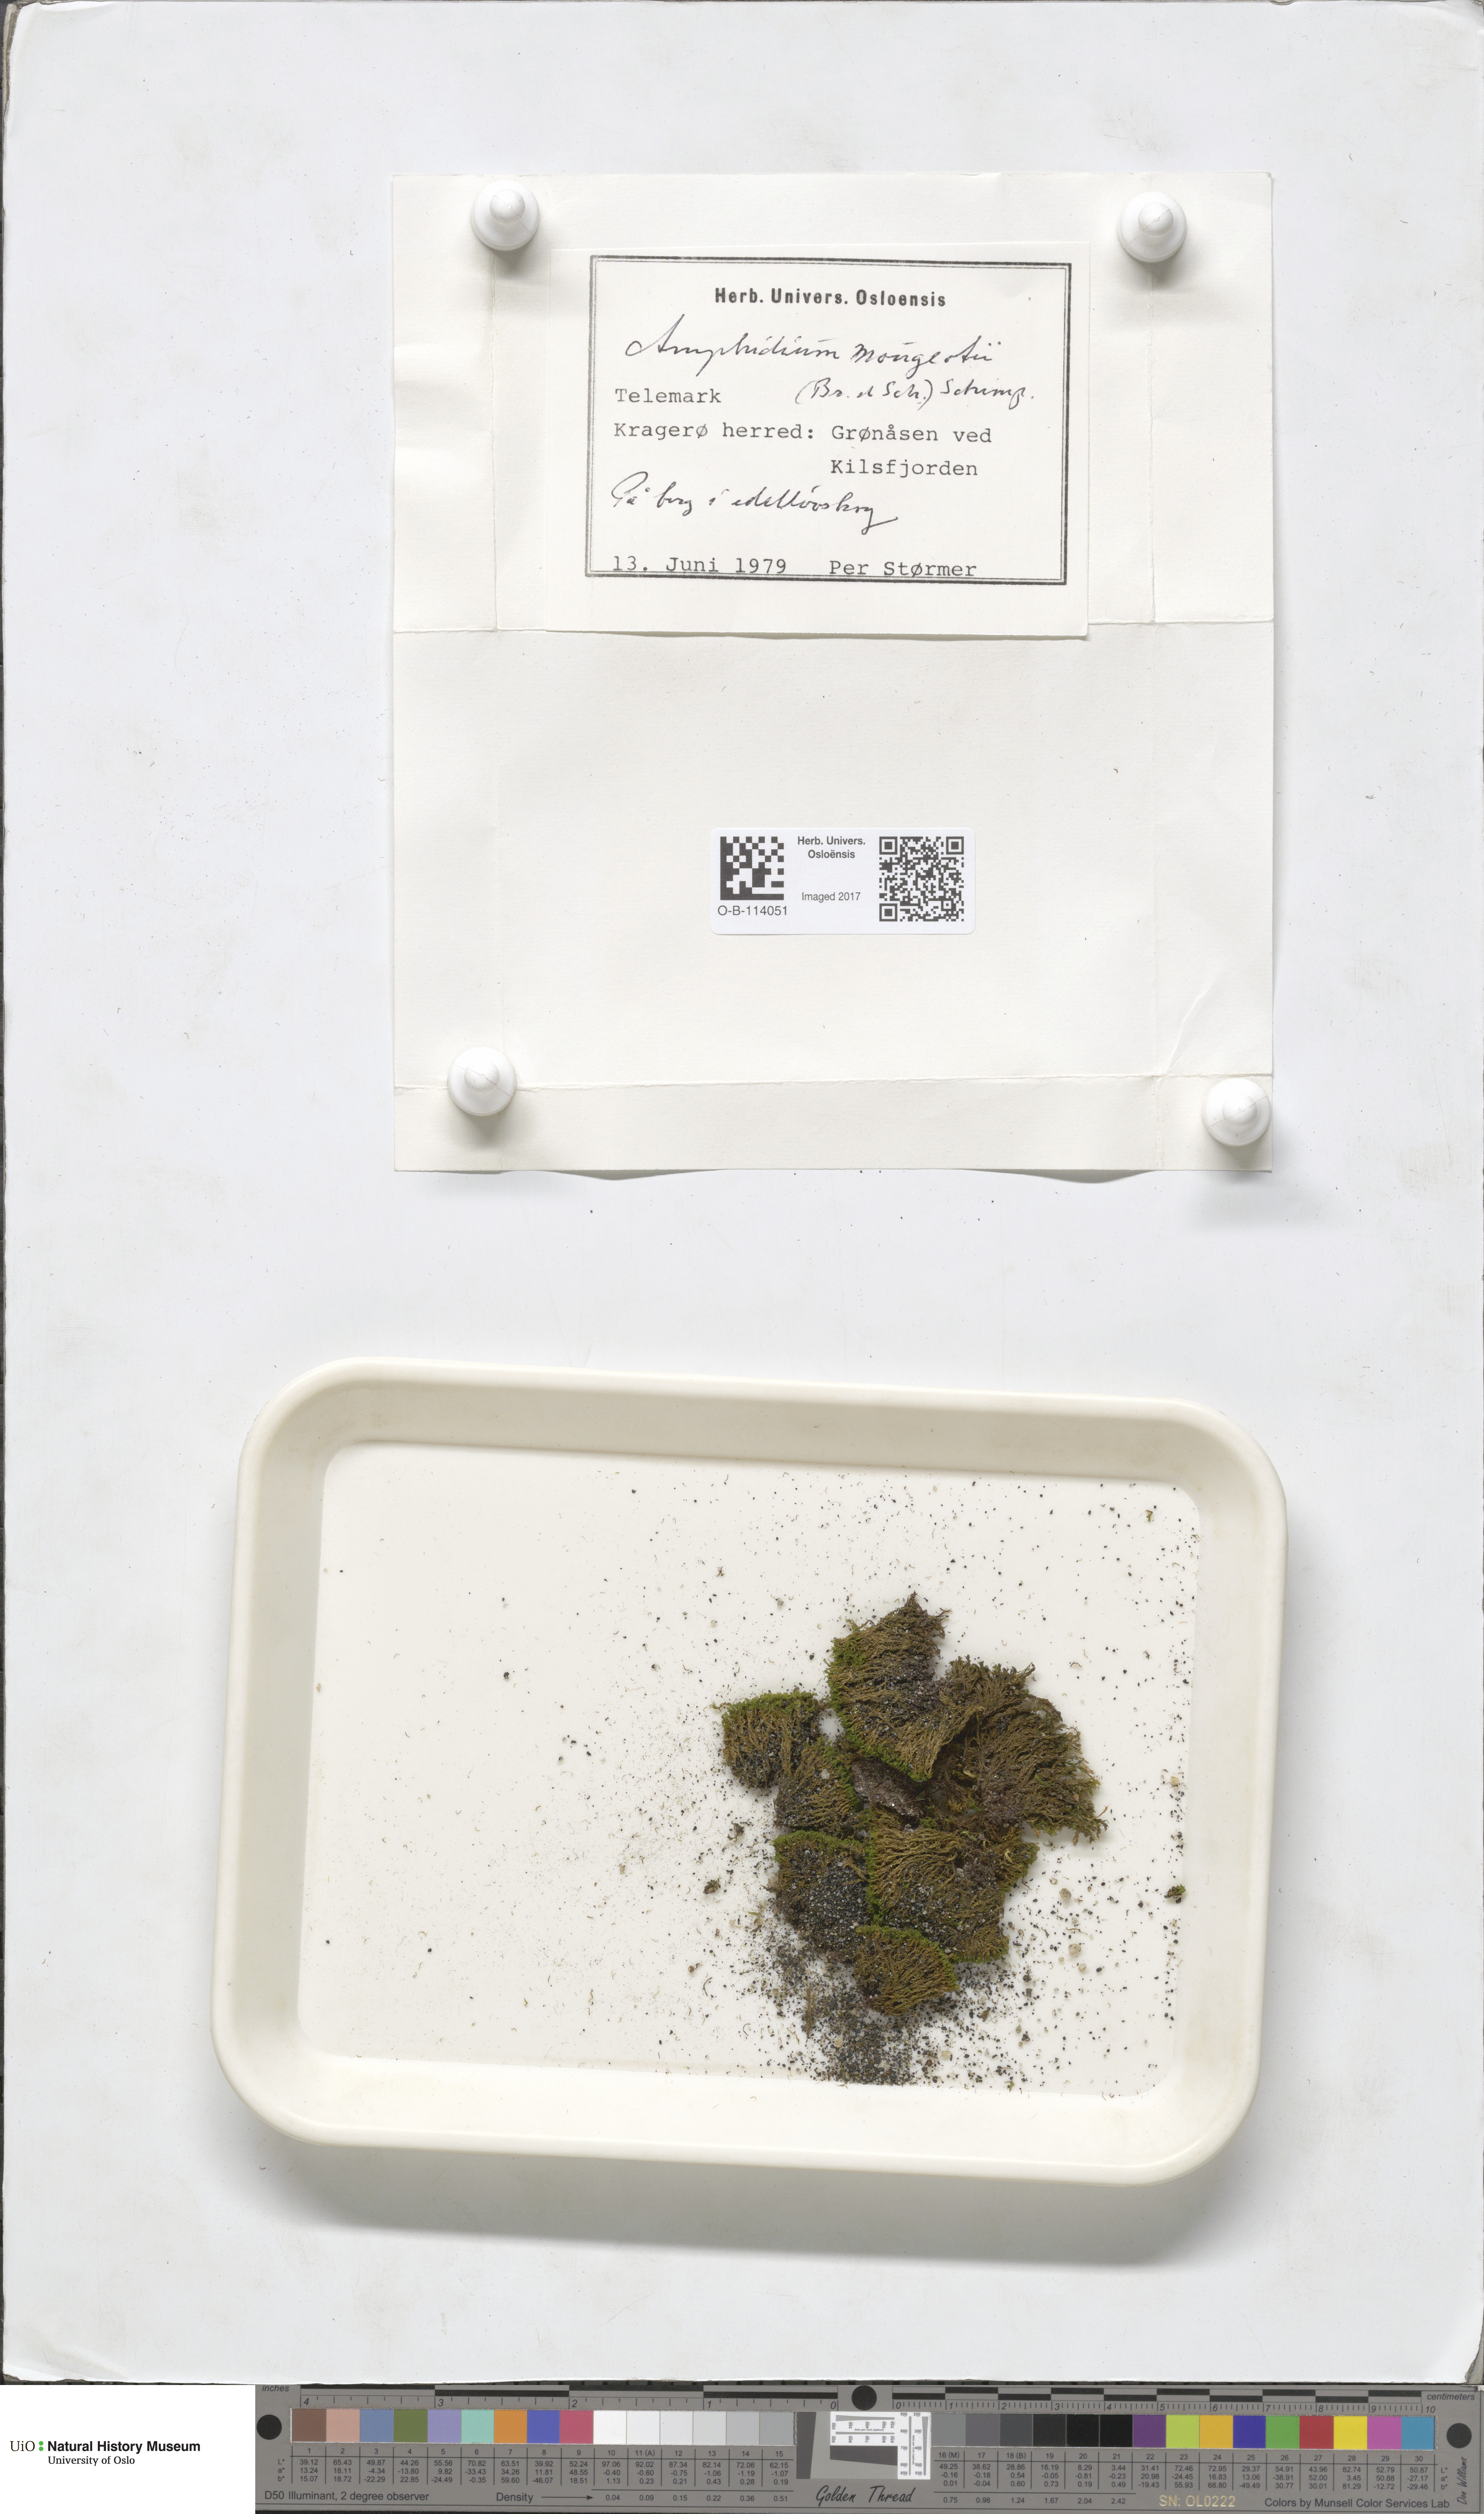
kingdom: Plantae
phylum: Bryophyta
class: Bryopsida
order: Dicranales
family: Amphidiaceae
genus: Amphidium
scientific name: Amphidium mougeotii
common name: Mougeot's yoke moss
